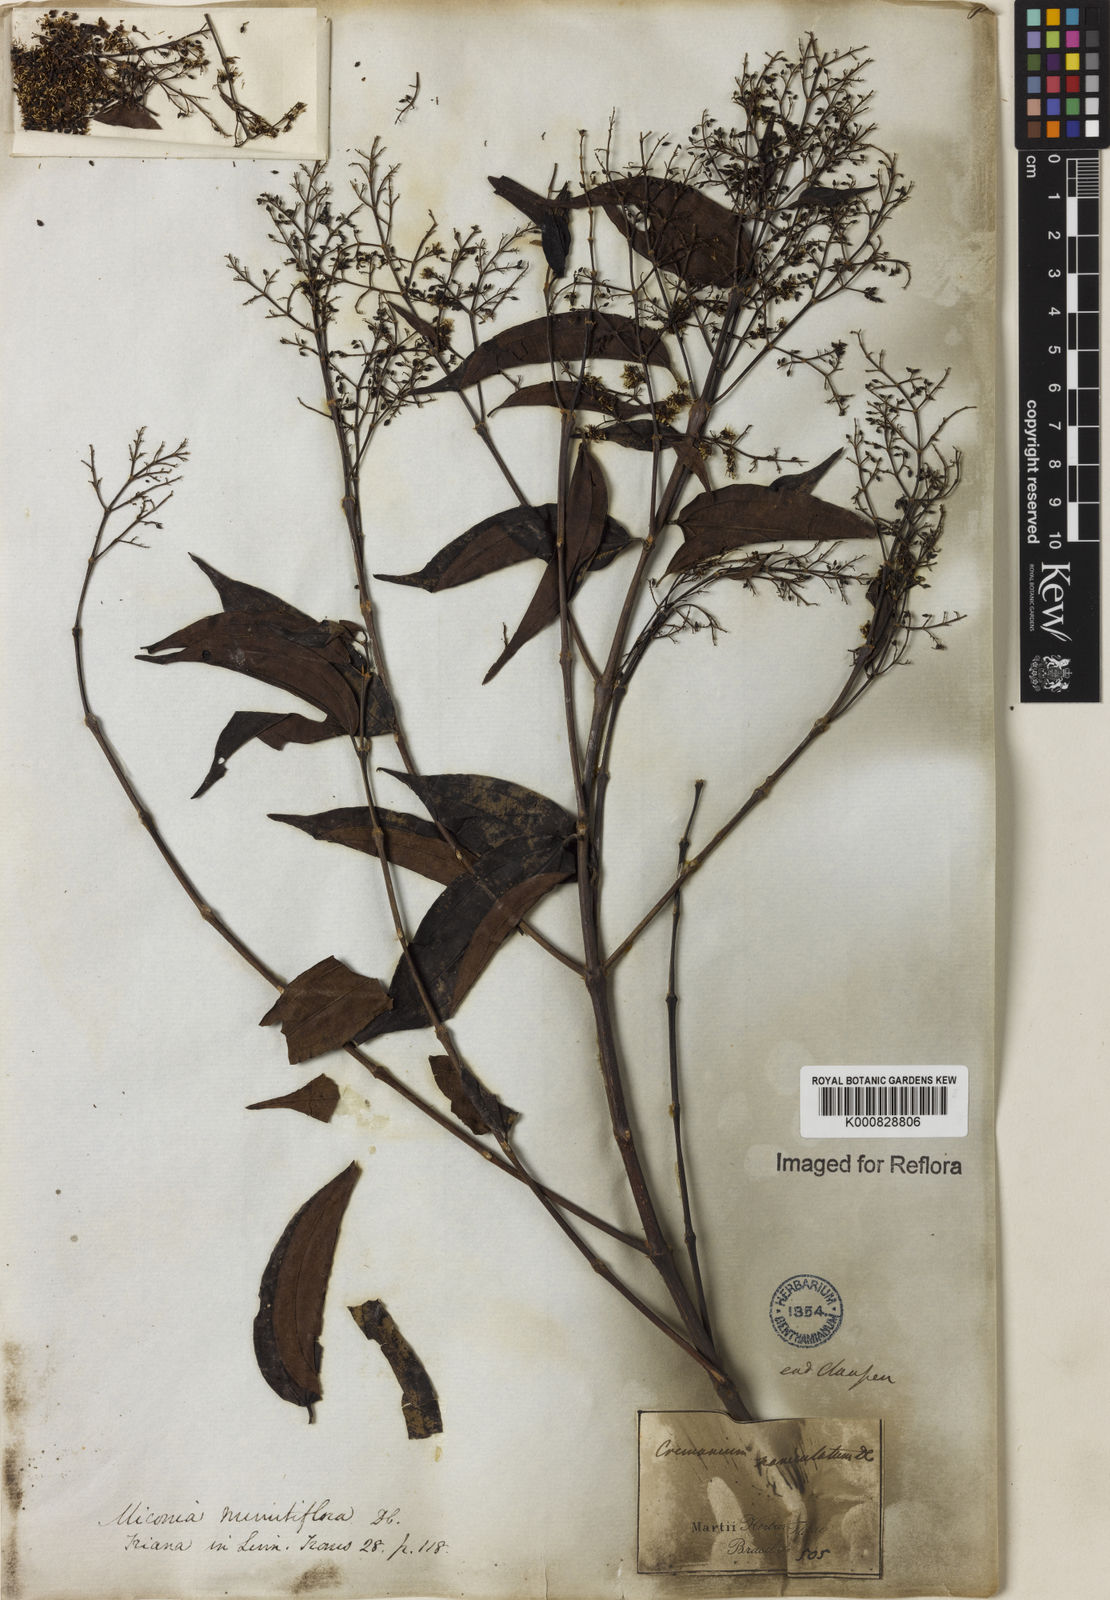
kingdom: Plantae
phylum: Tracheophyta
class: Magnoliopsida
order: Myrtales
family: Melastomataceae
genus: Miconia
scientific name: Miconia minutiflora
